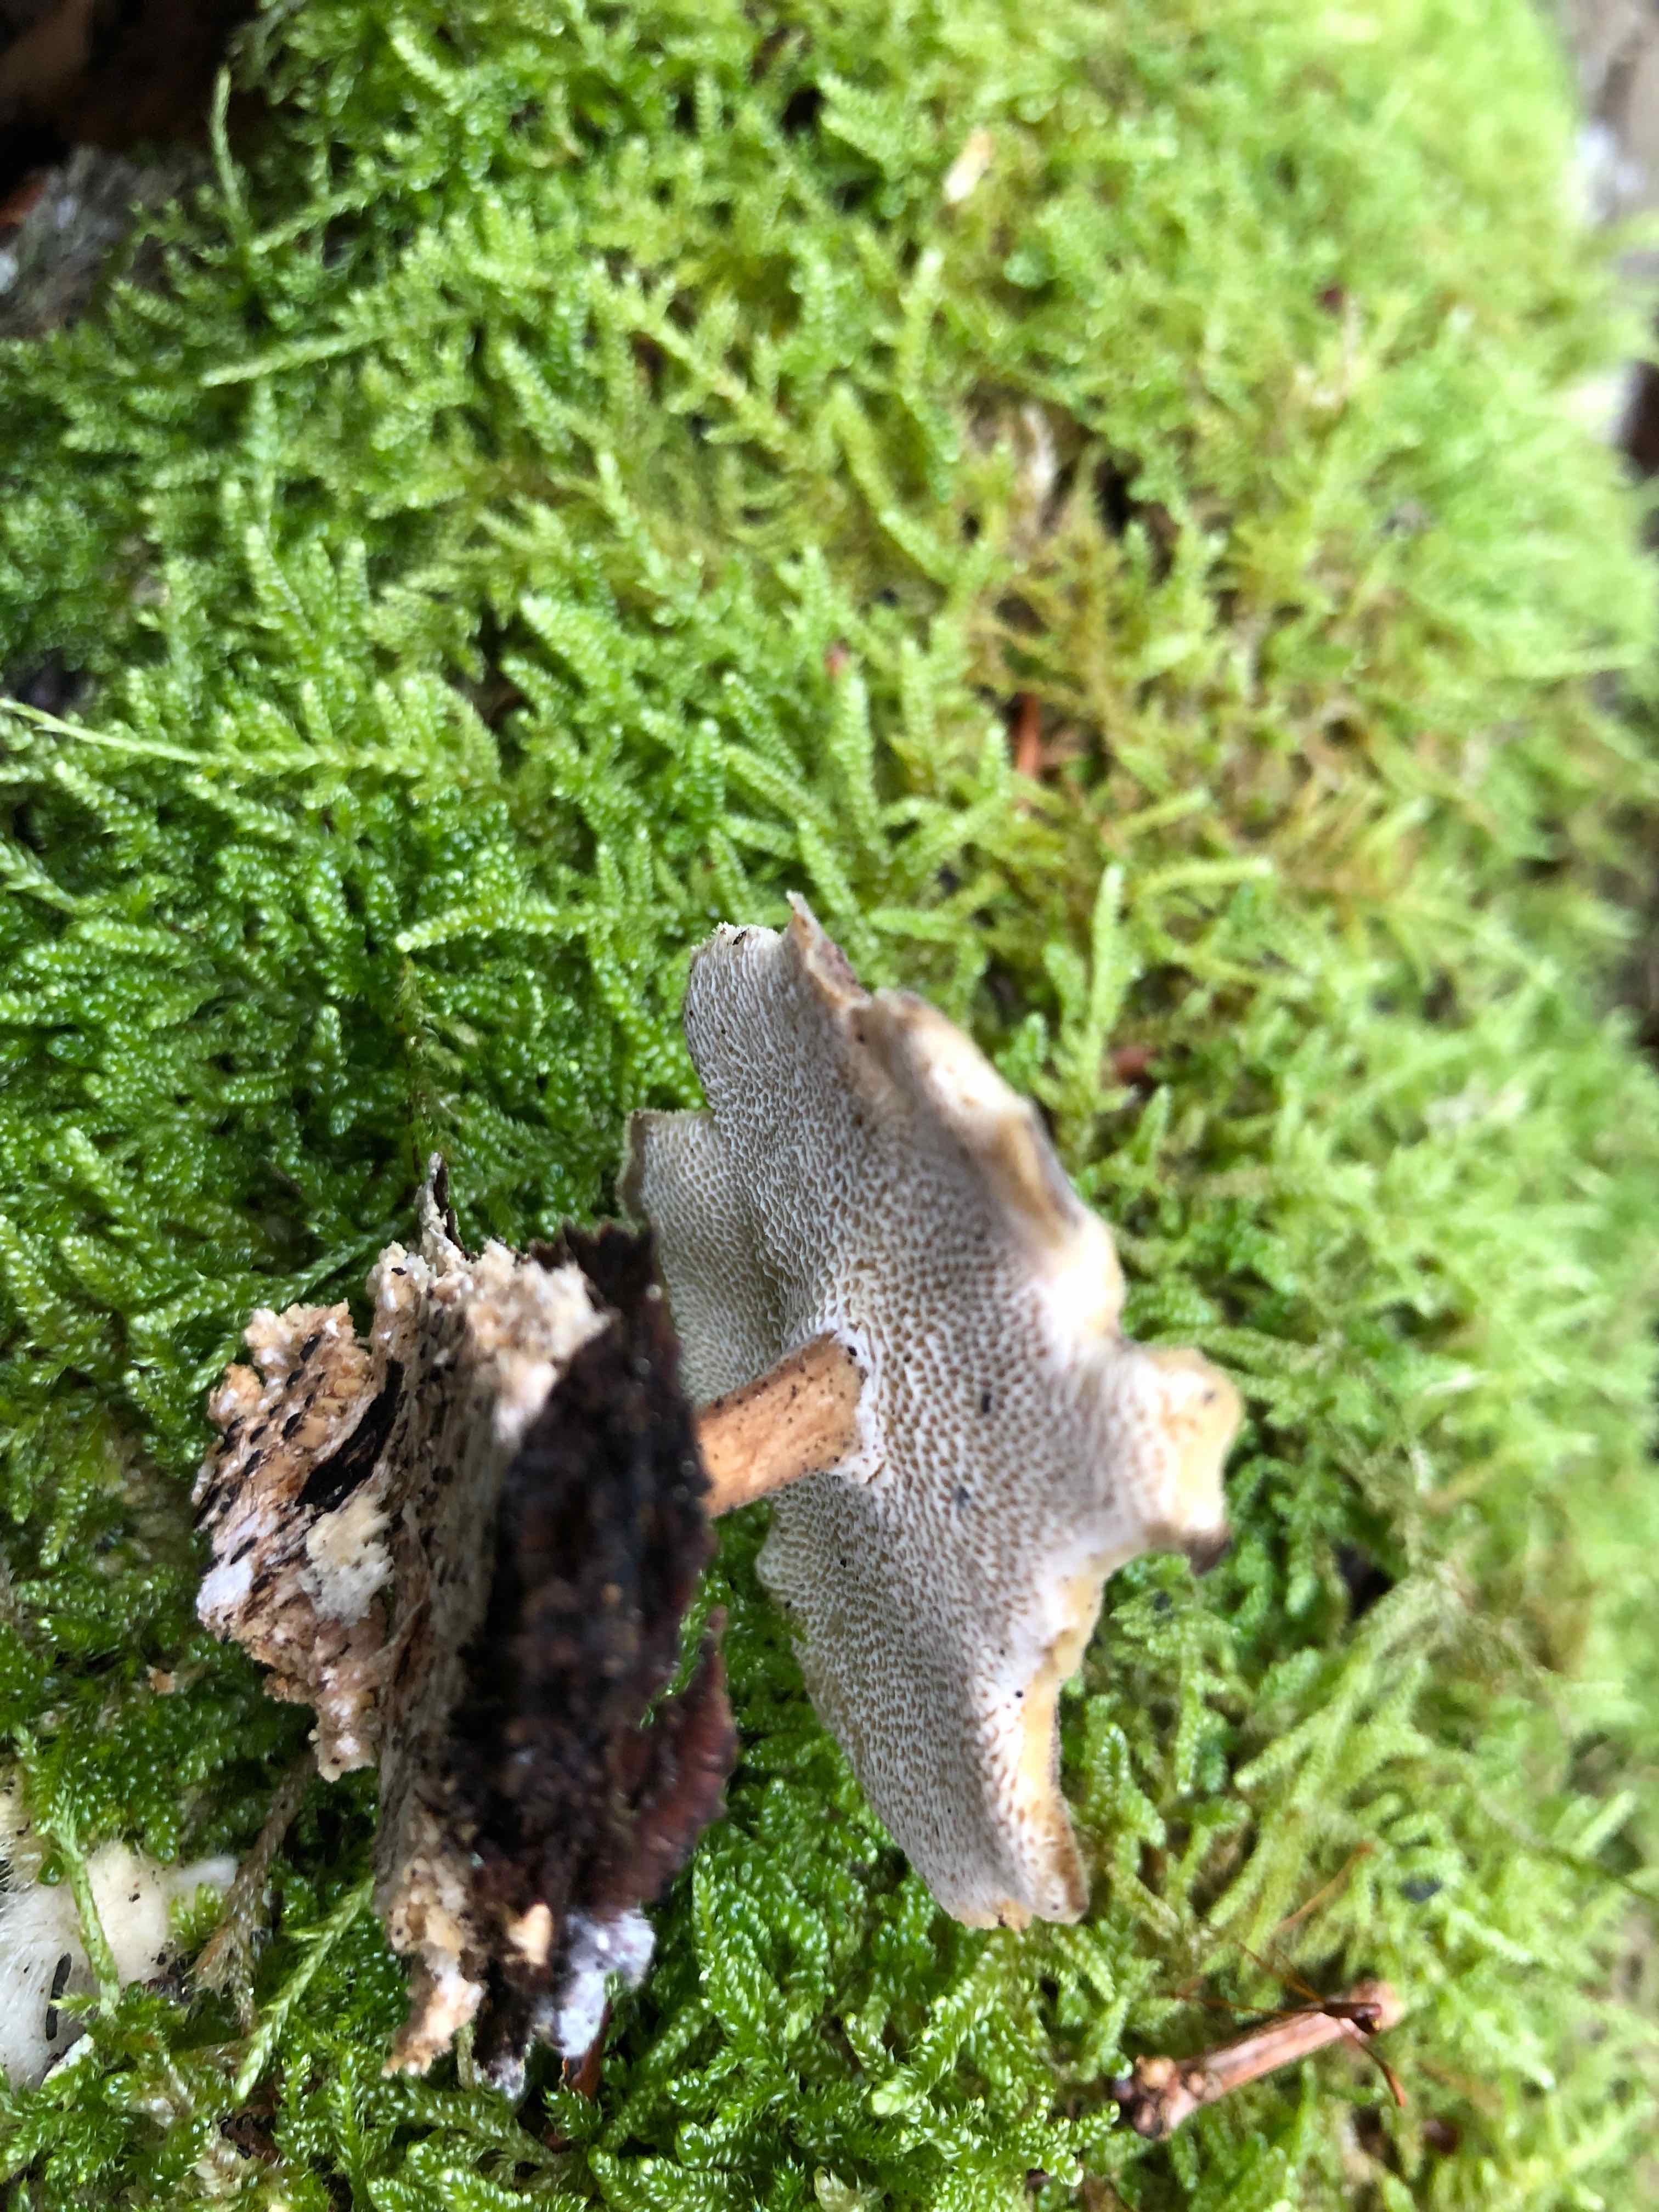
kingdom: Fungi
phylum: Basidiomycota
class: Agaricomycetes
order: Polyporales
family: Polyporaceae
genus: Lentinus
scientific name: Lentinus brumalis
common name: vinter-stilkporesvamp
